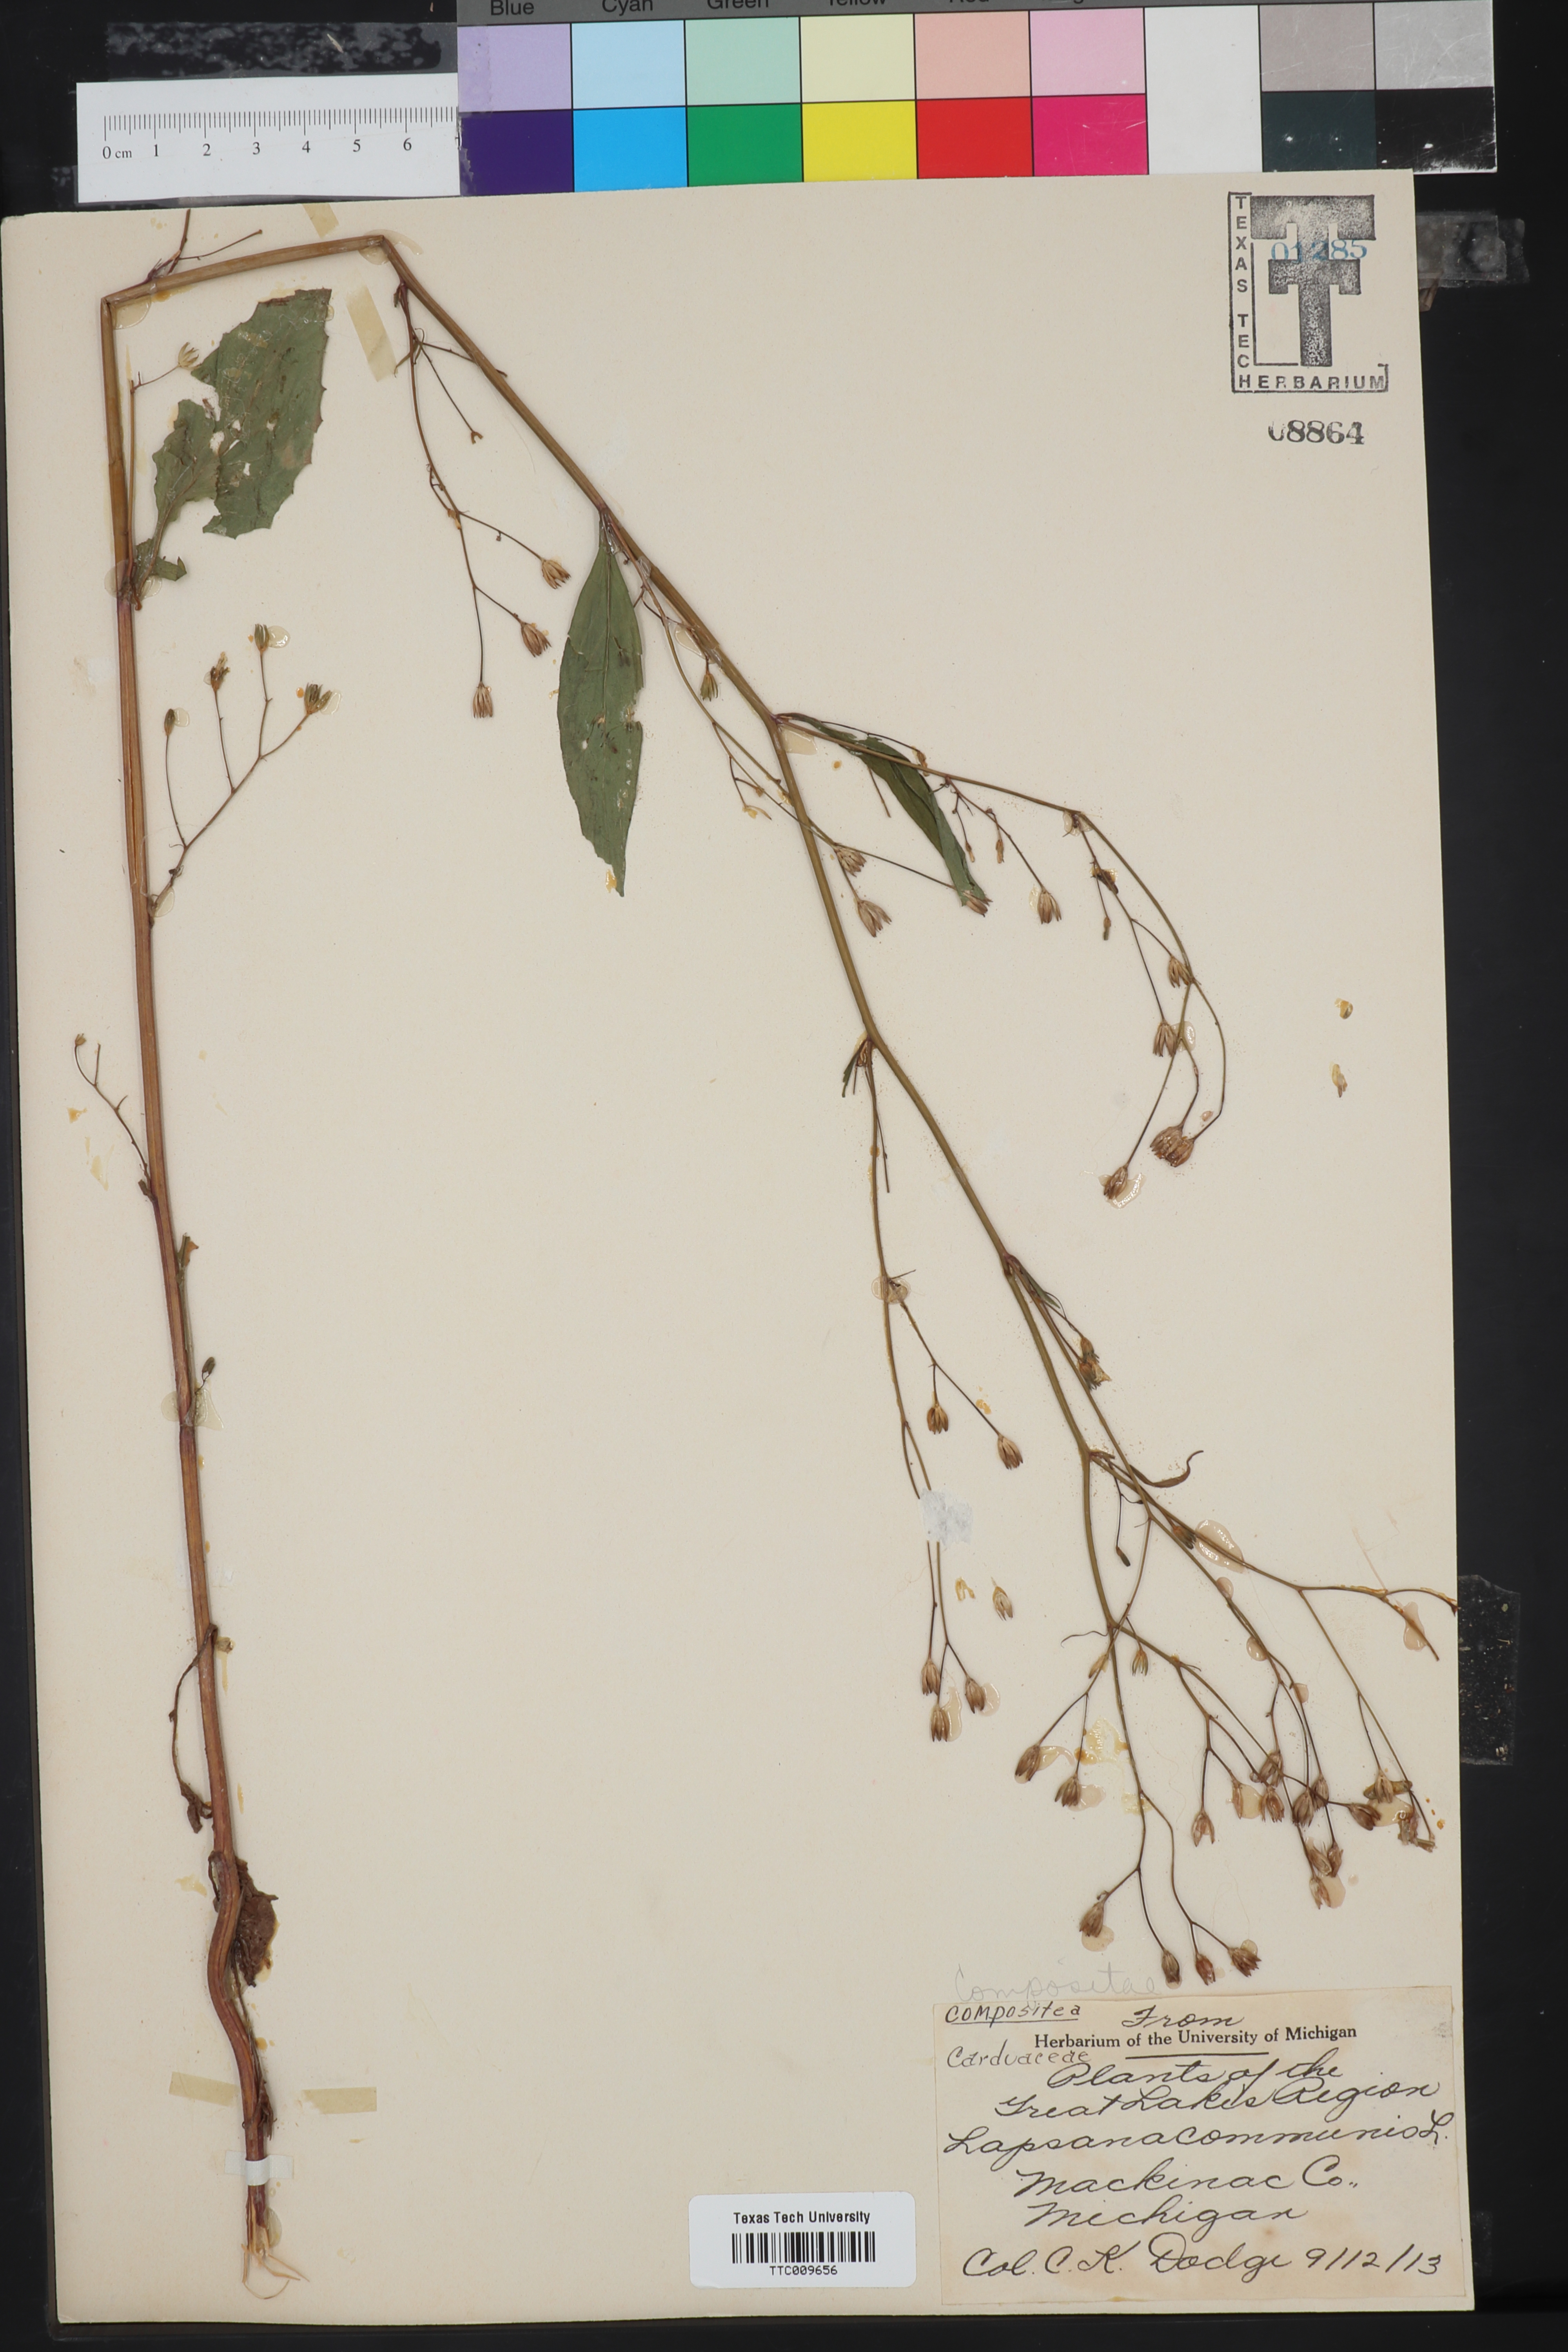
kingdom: Plantae
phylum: Tracheophyta
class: Magnoliopsida
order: Asterales
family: Asteraceae
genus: Lapsana
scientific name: Lapsana communis
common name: Nipplewort
